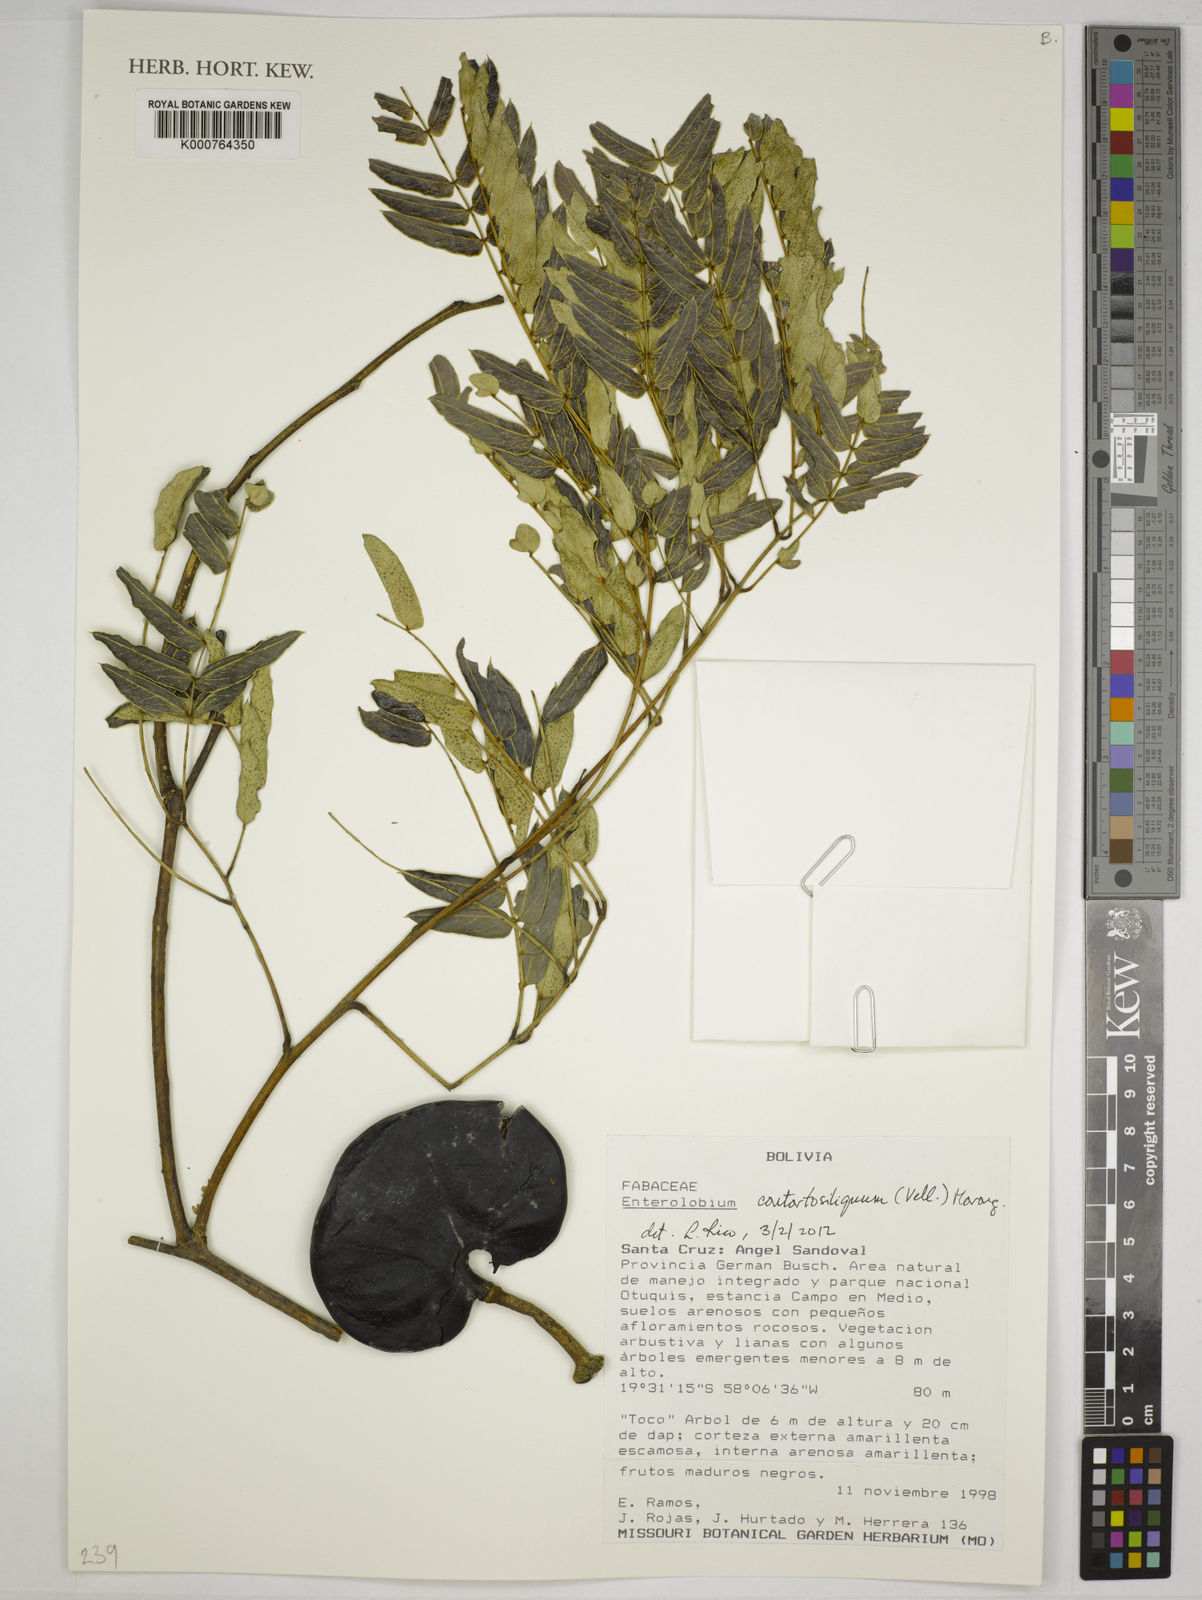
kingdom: Plantae
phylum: Tracheophyta
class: Magnoliopsida
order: Fabales
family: Fabaceae
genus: Enterolobium
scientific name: Enterolobium
